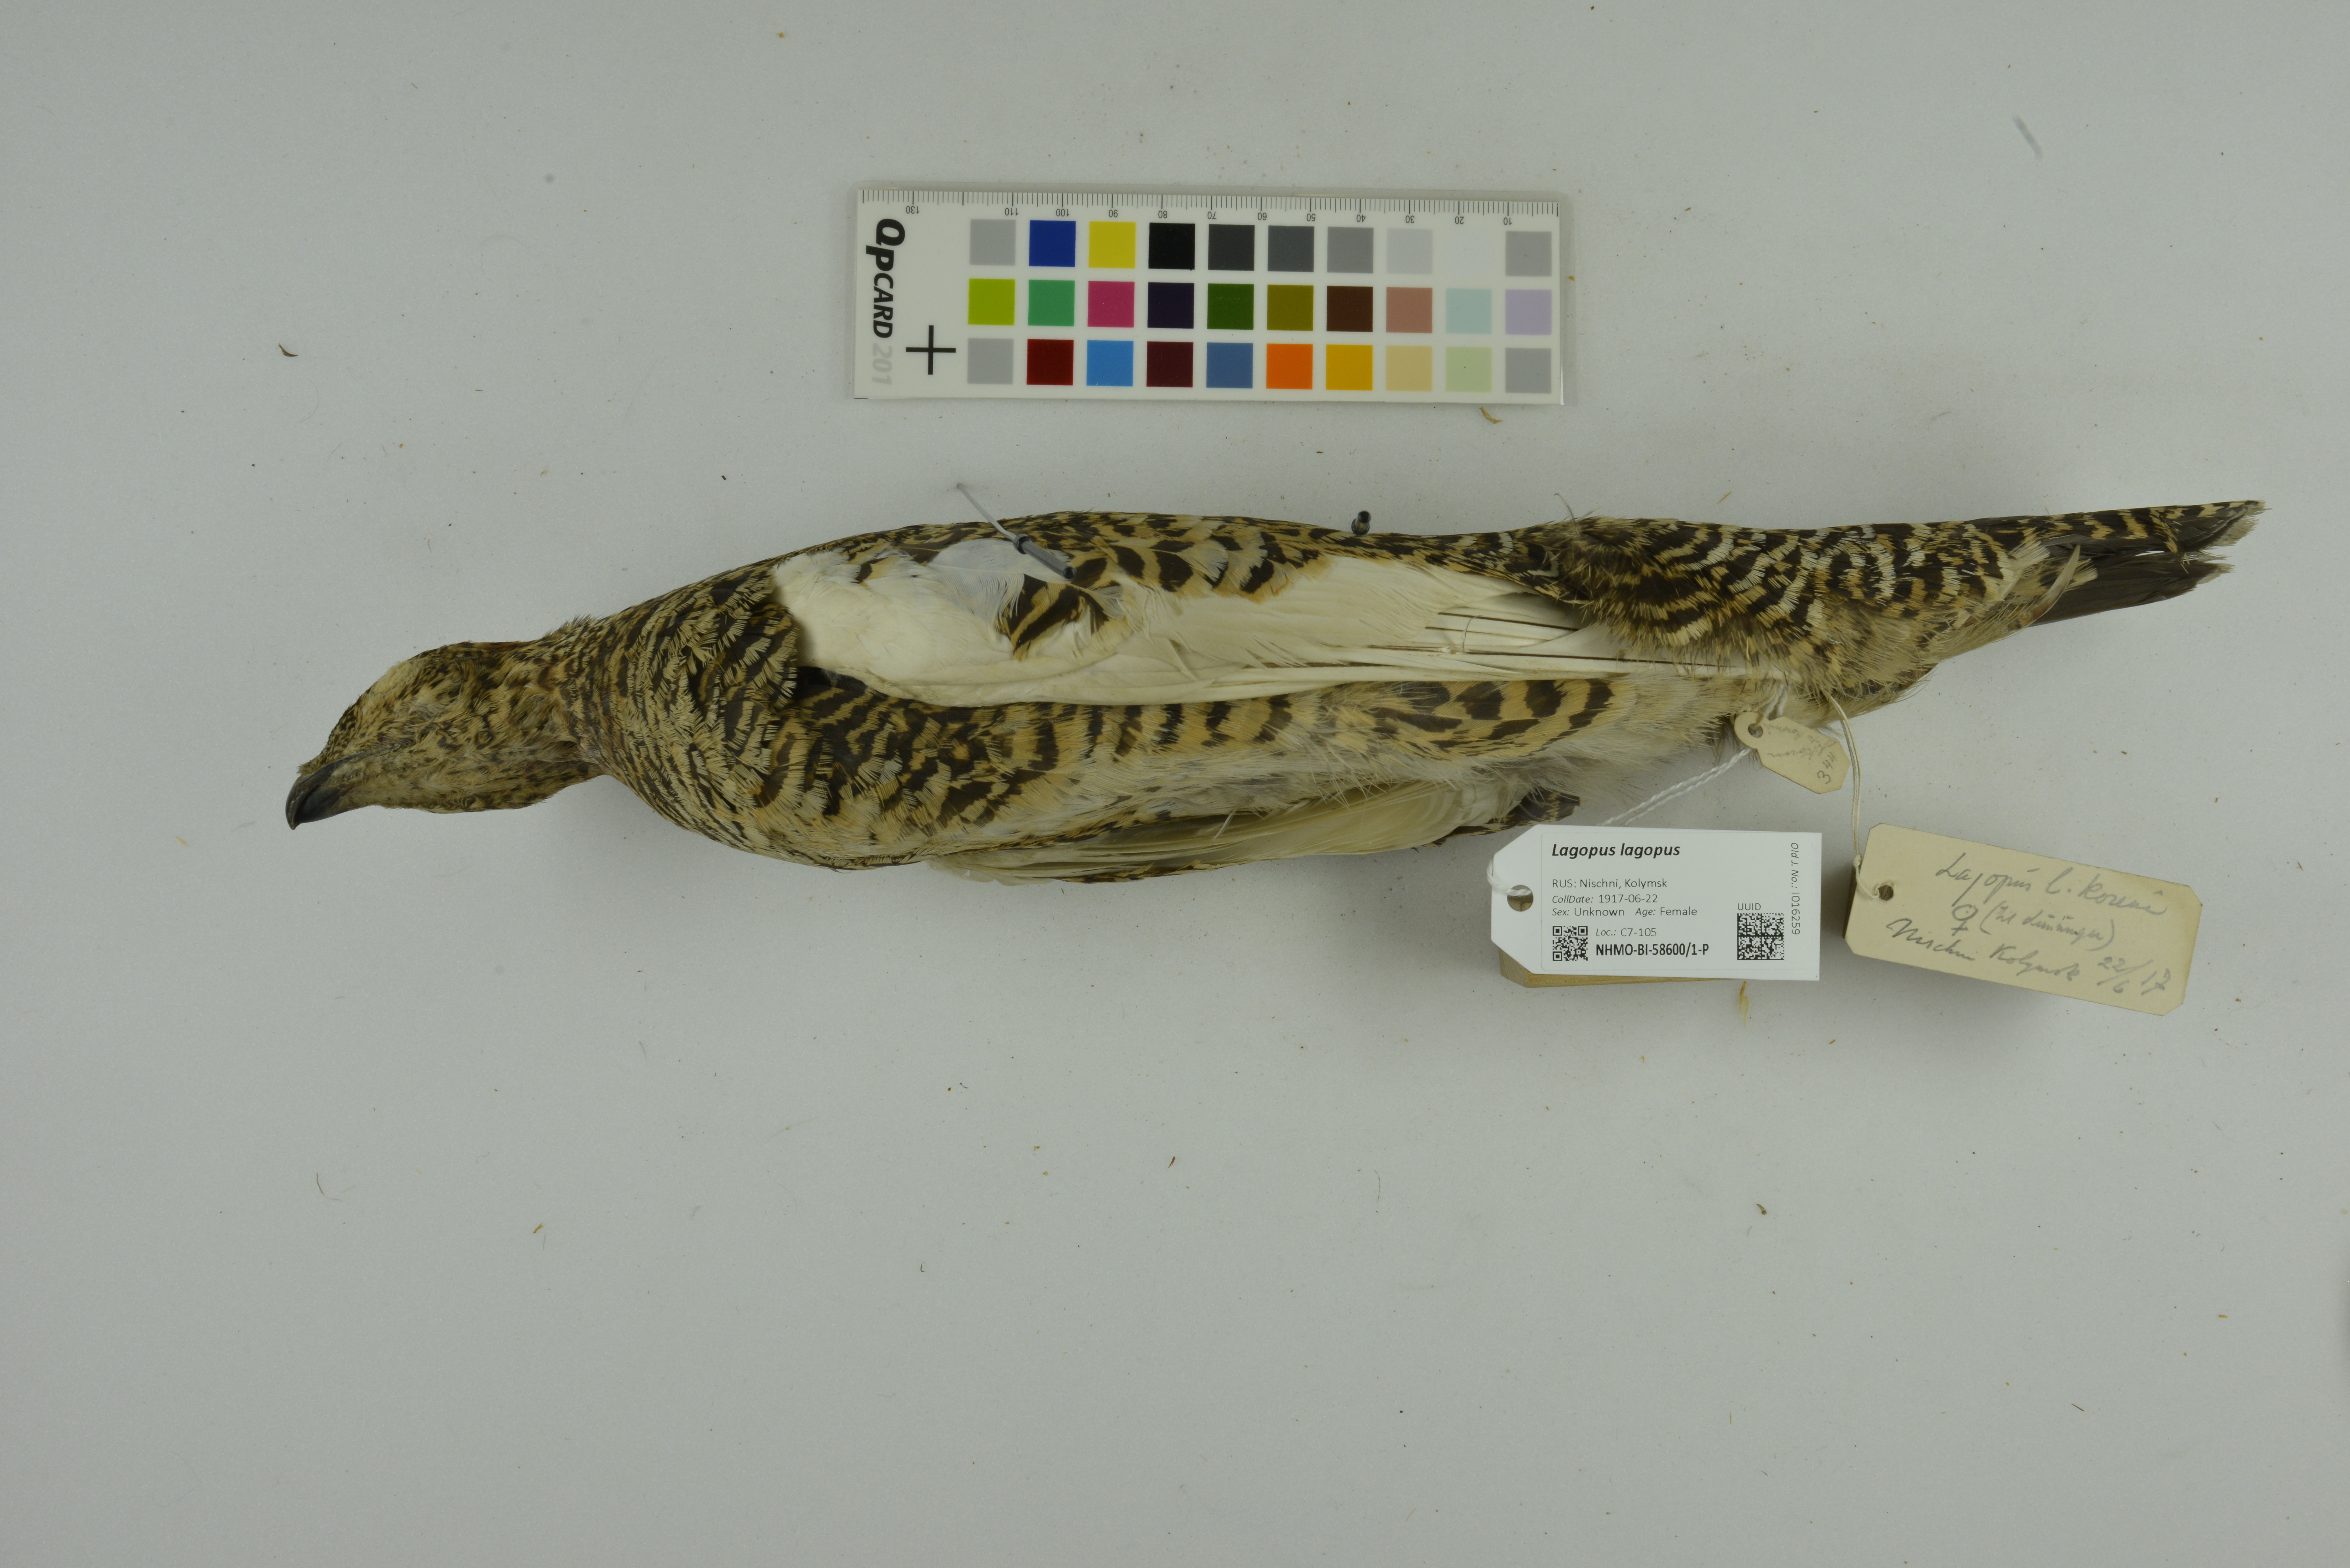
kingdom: Animalia
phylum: Chordata
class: Aves
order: Galliformes
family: Phasianidae
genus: Lagopus
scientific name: Lagopus lagopus
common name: Willow ptarmigan
